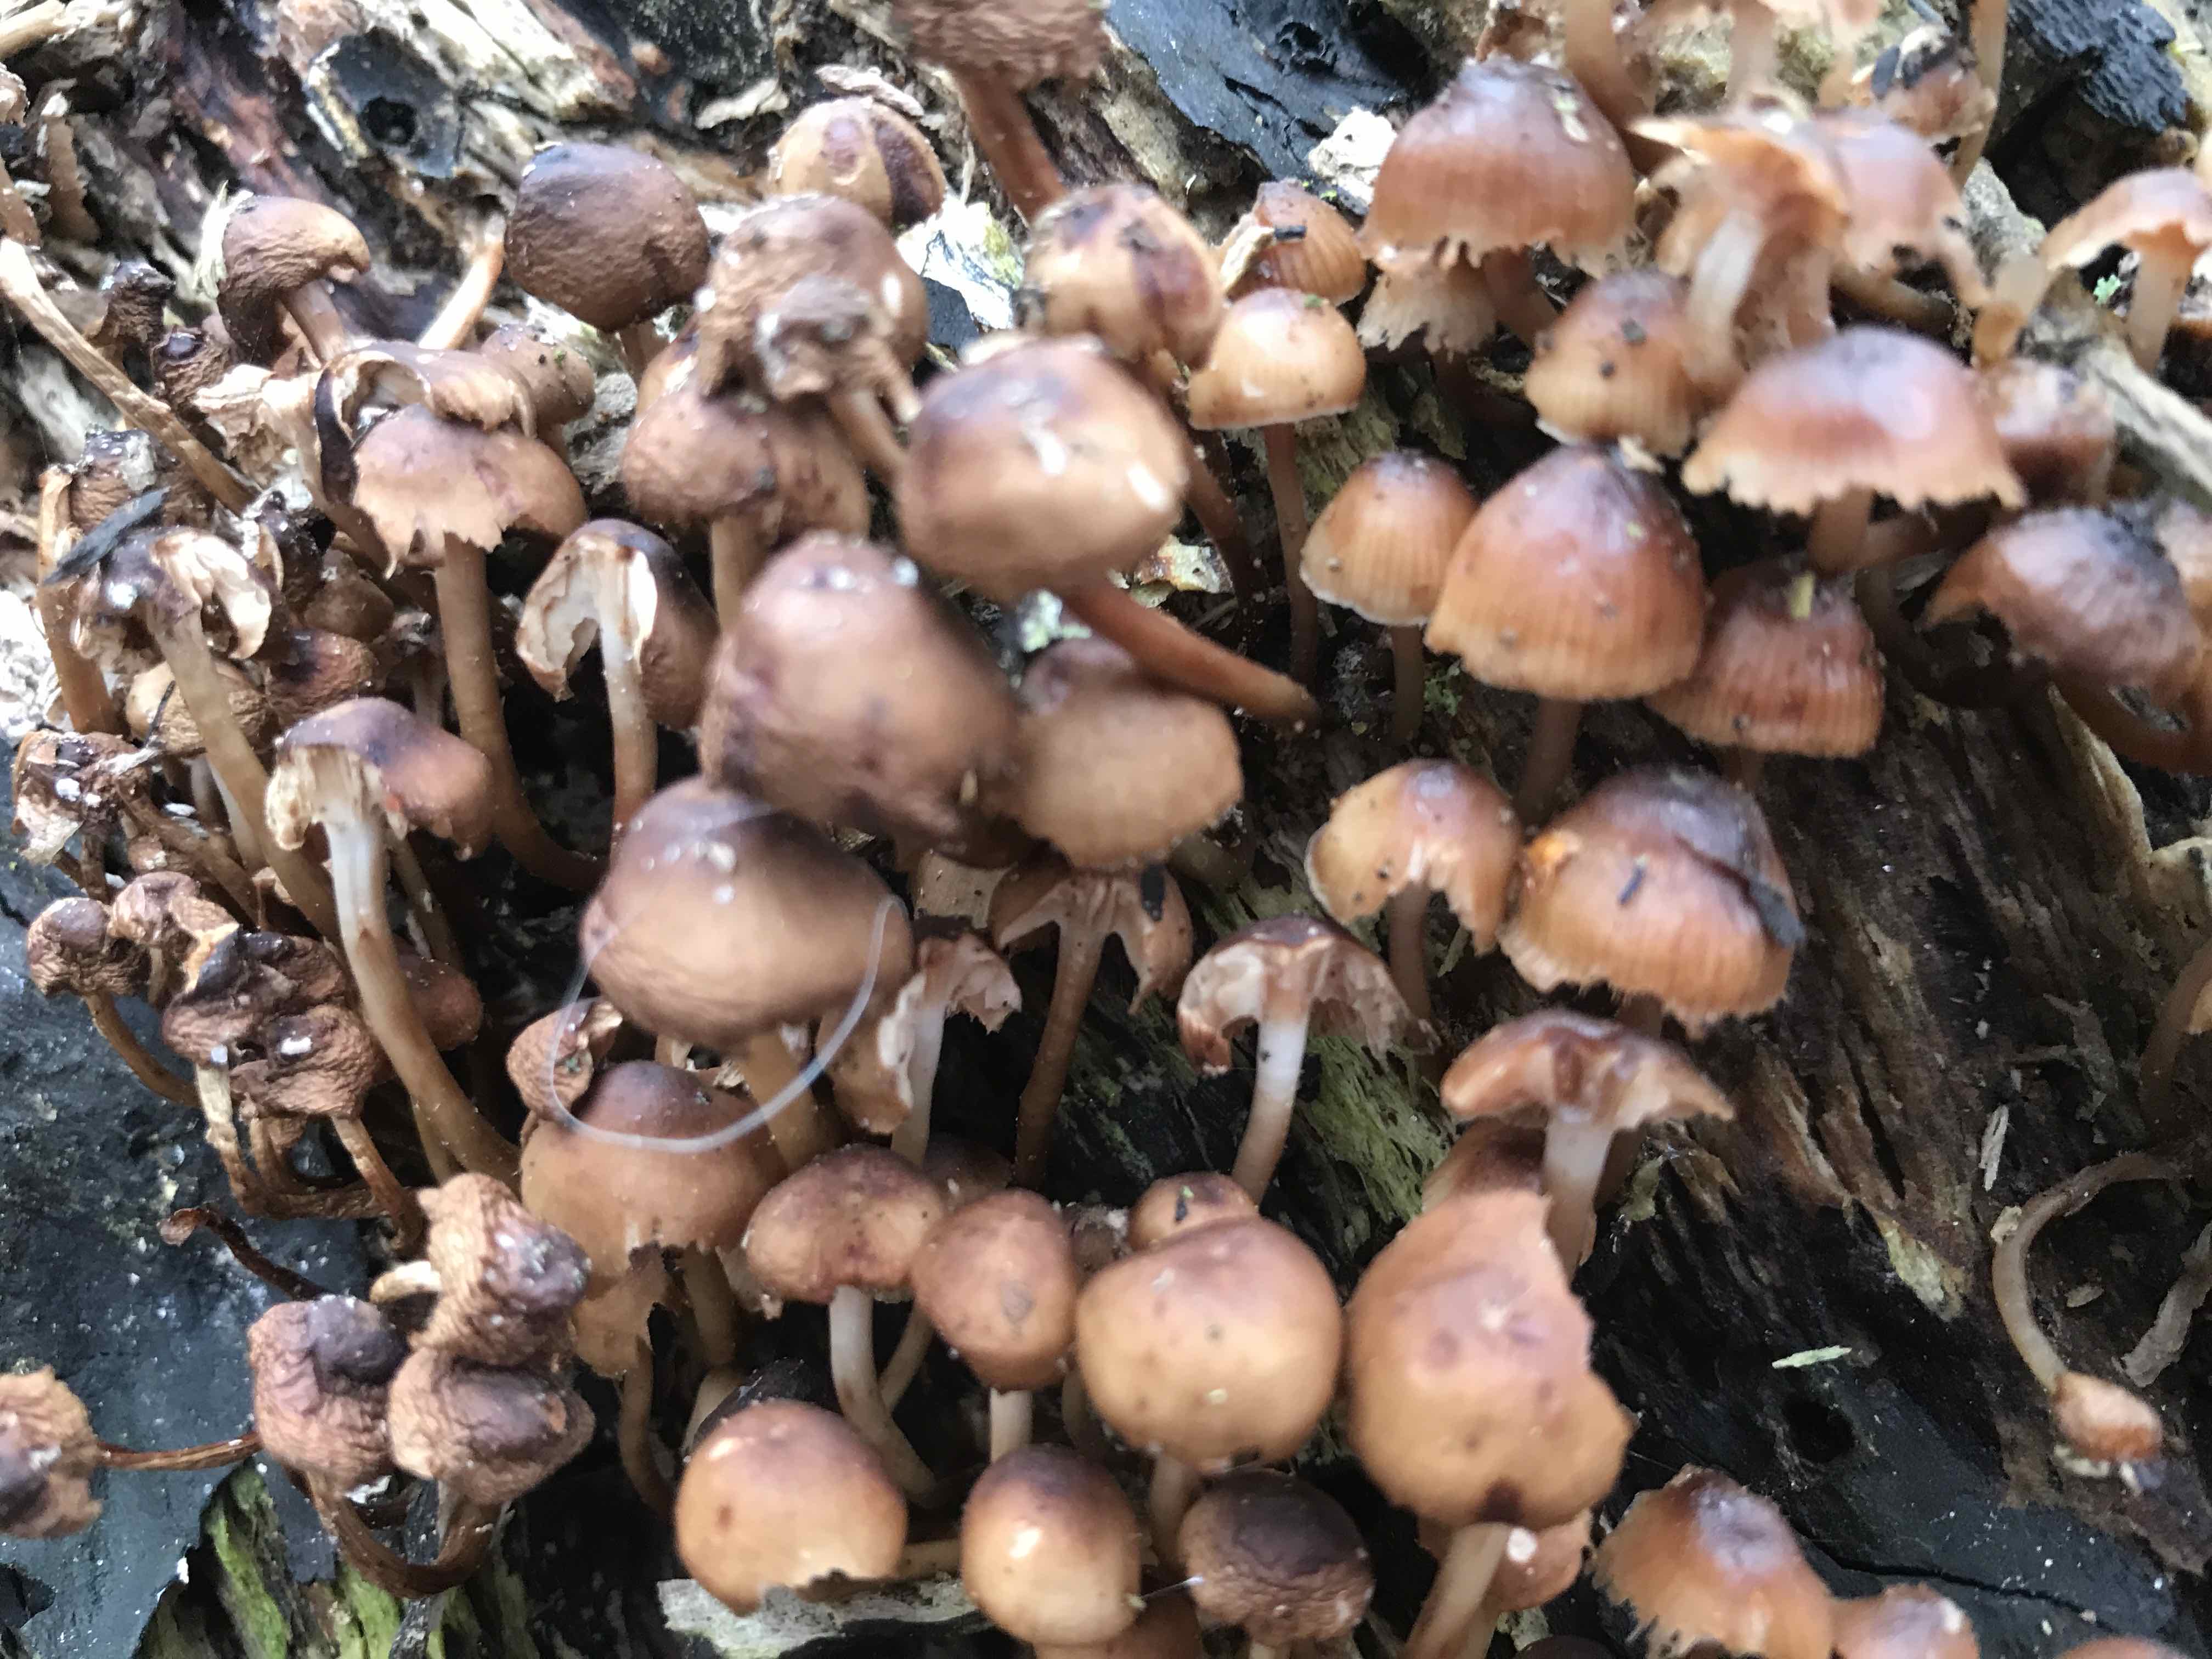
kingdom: Fungi
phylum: Basidiomycota
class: Agaricomycetes
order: Agaricales
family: Mycenaceae
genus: Mycena
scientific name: Mycena tintinnabulum
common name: vinter-huesvamp
